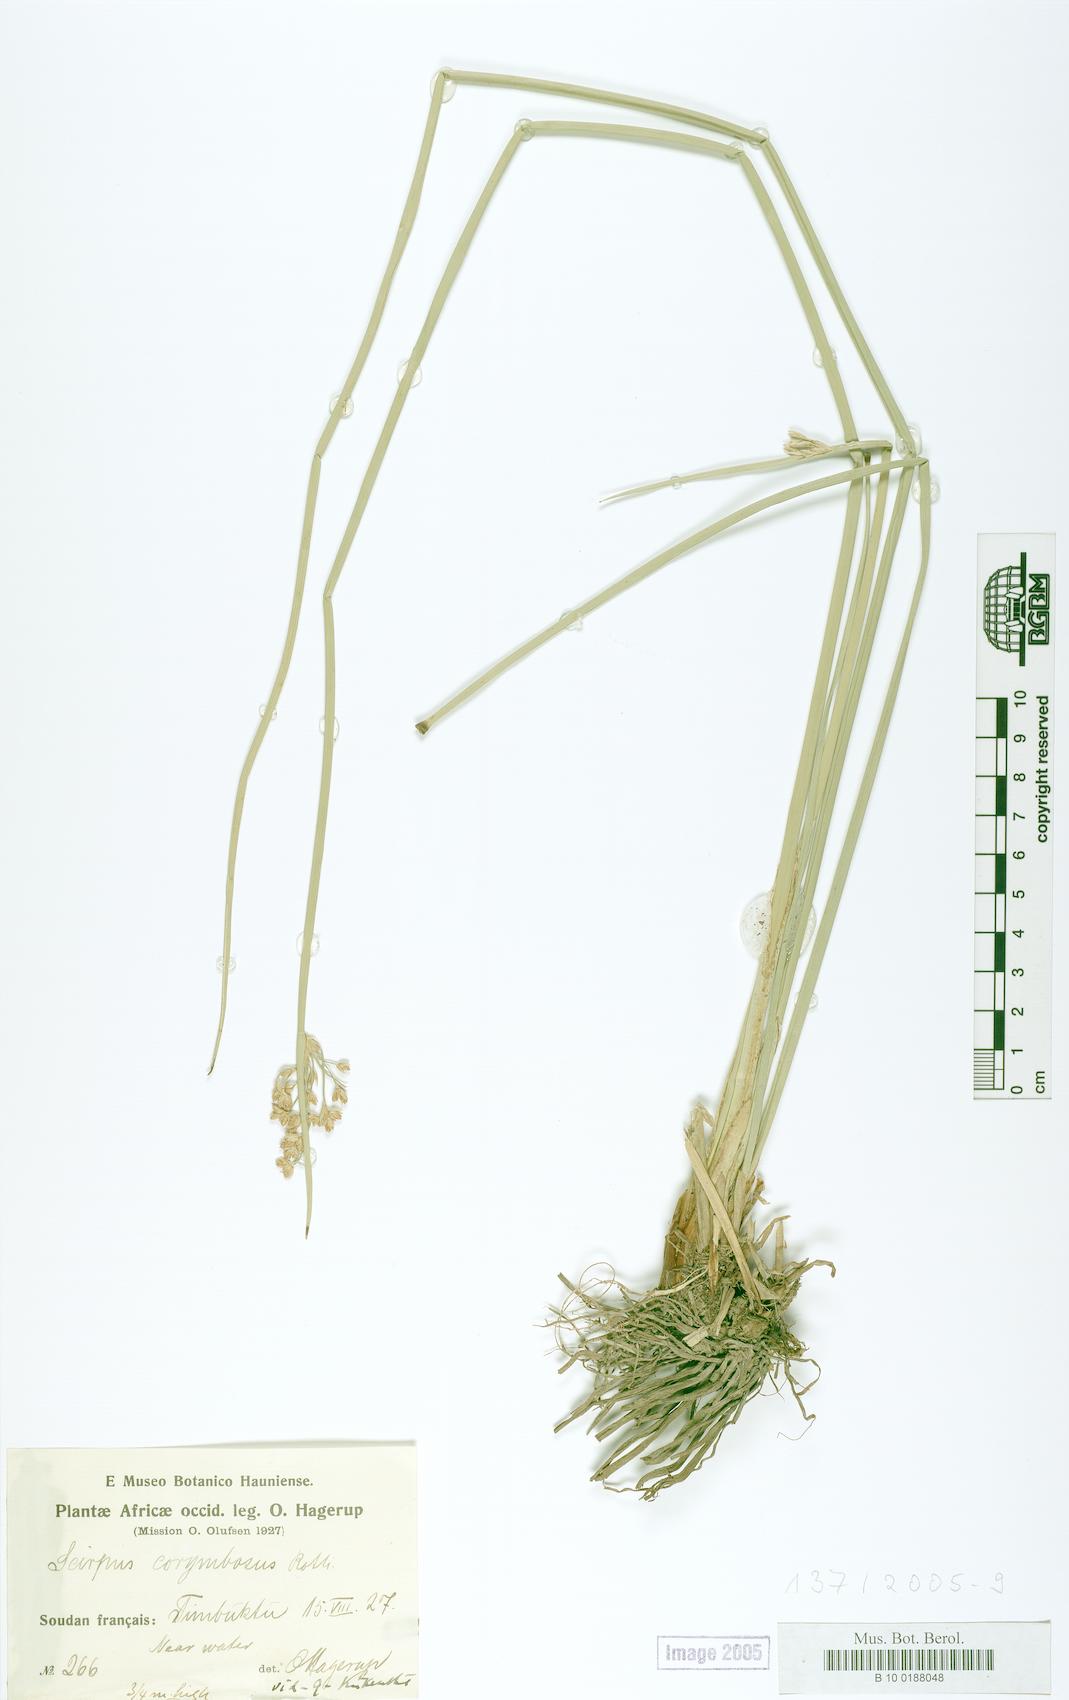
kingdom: Plantae
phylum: Tracheophyta
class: Liliopsida
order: Poales
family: Cyperaceae
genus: Scirpus
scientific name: Scirpus corymbosus
